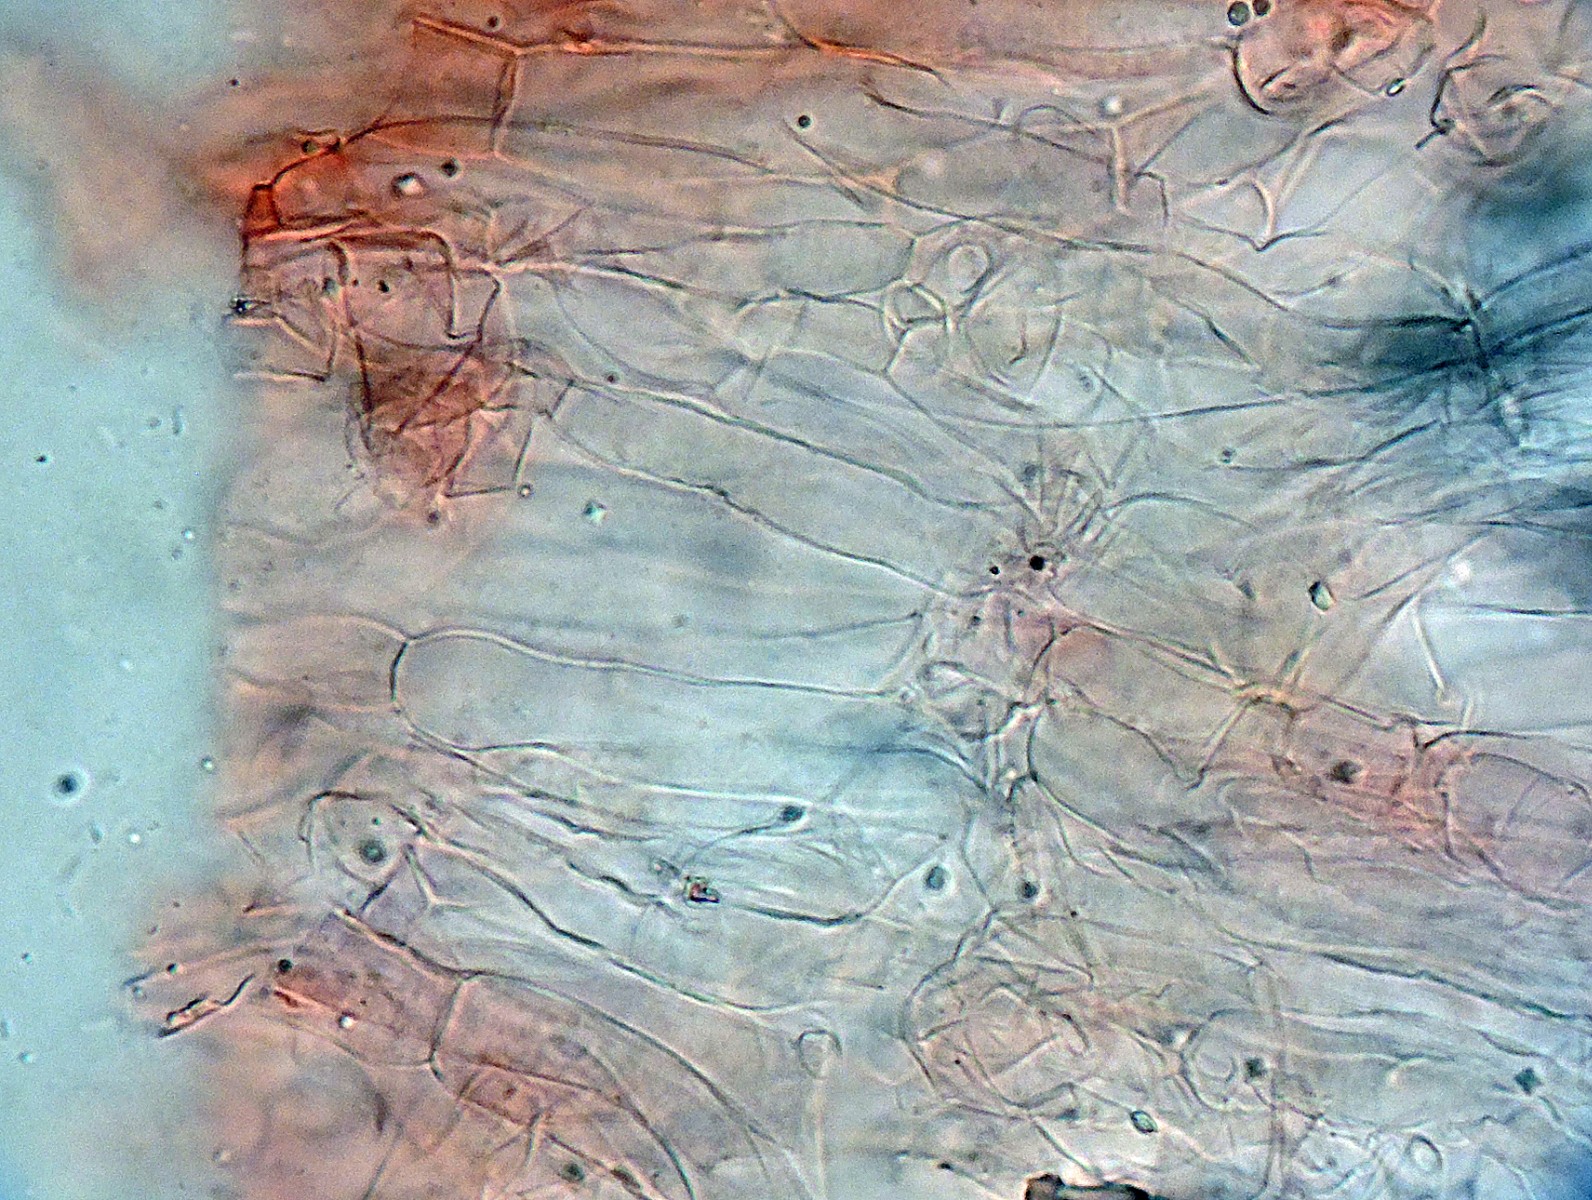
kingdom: Fungi
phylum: Basidiomycota
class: Agaricomycetes
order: Agaricales
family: Hygrophoraceae
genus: Arrhenia
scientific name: Arrhenia rickenii
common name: krusbladet fontænehat
